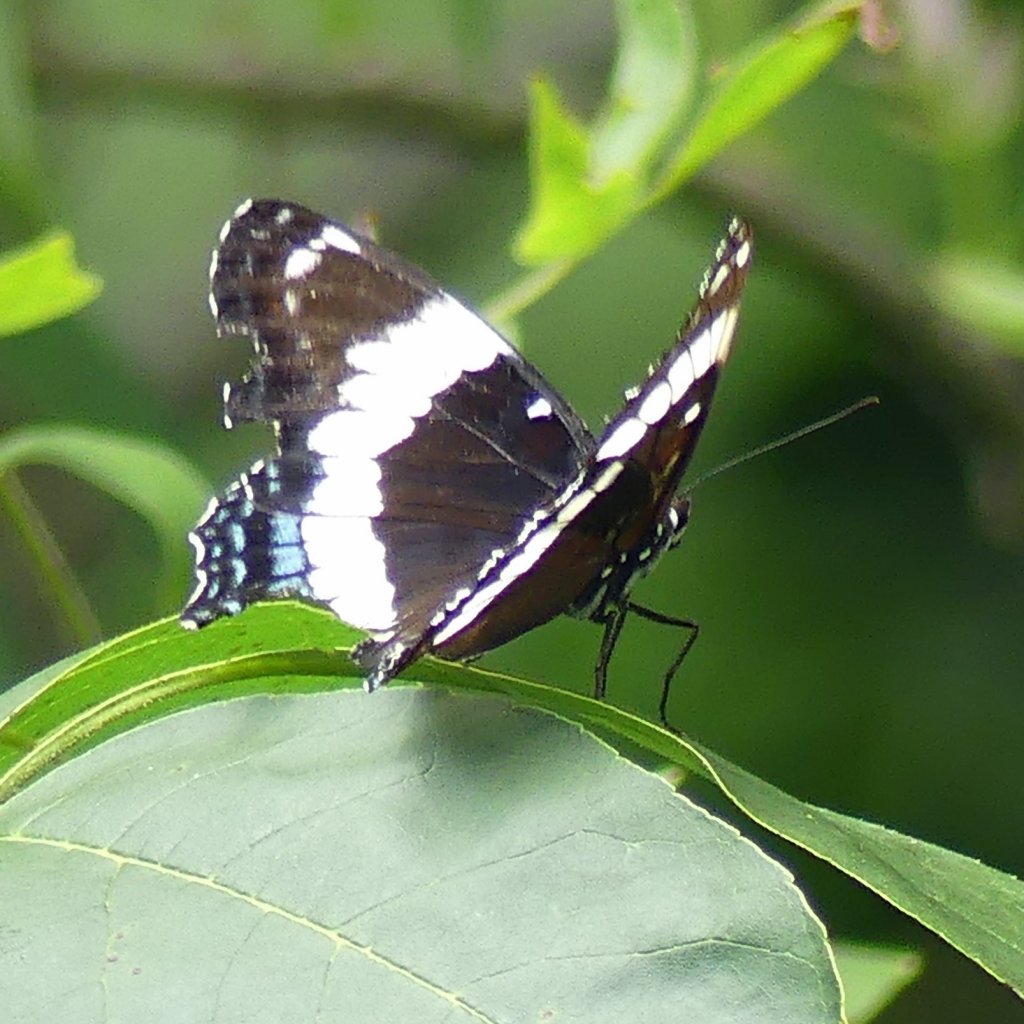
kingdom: Animalia
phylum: Arthropoda
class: Insecta
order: Lepidoptera
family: Nymphalidae
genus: Limenitis
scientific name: Limenitis arthemis
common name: Red-spotted Admiral
